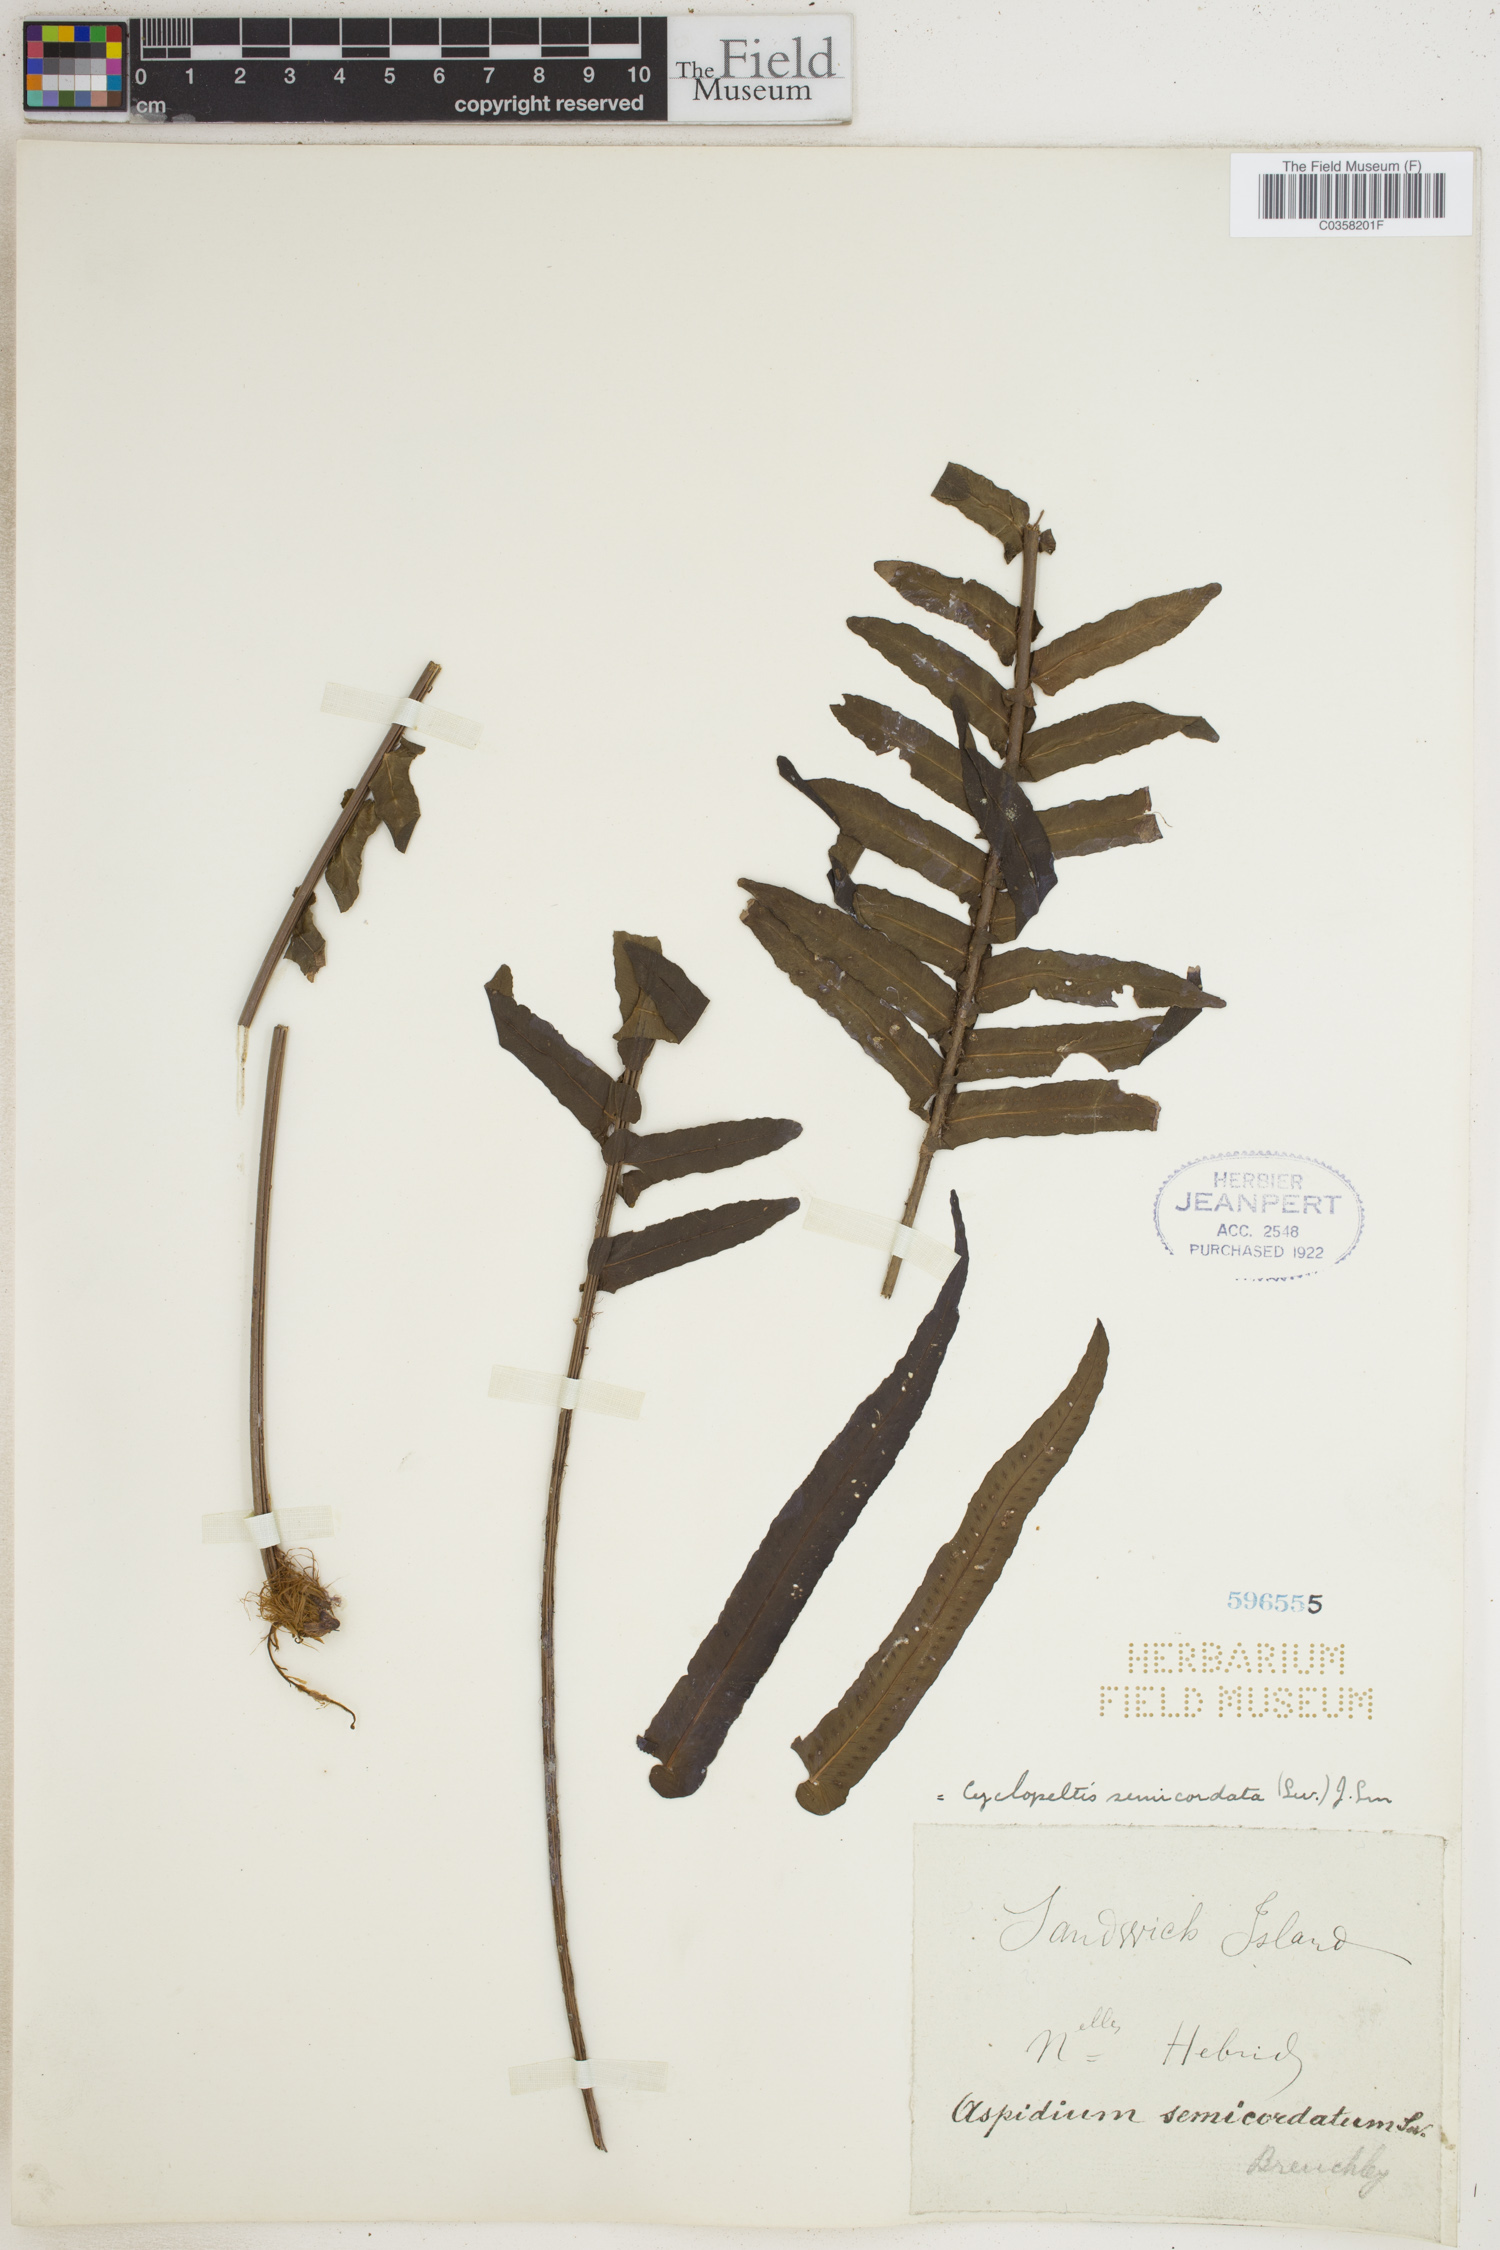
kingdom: Plantae
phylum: Tracheophyta
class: Polypodiopsida
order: Polypodiales
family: Lomariopsidaceae
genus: Cyclopeltis
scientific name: Cyclopeltis semicordata
